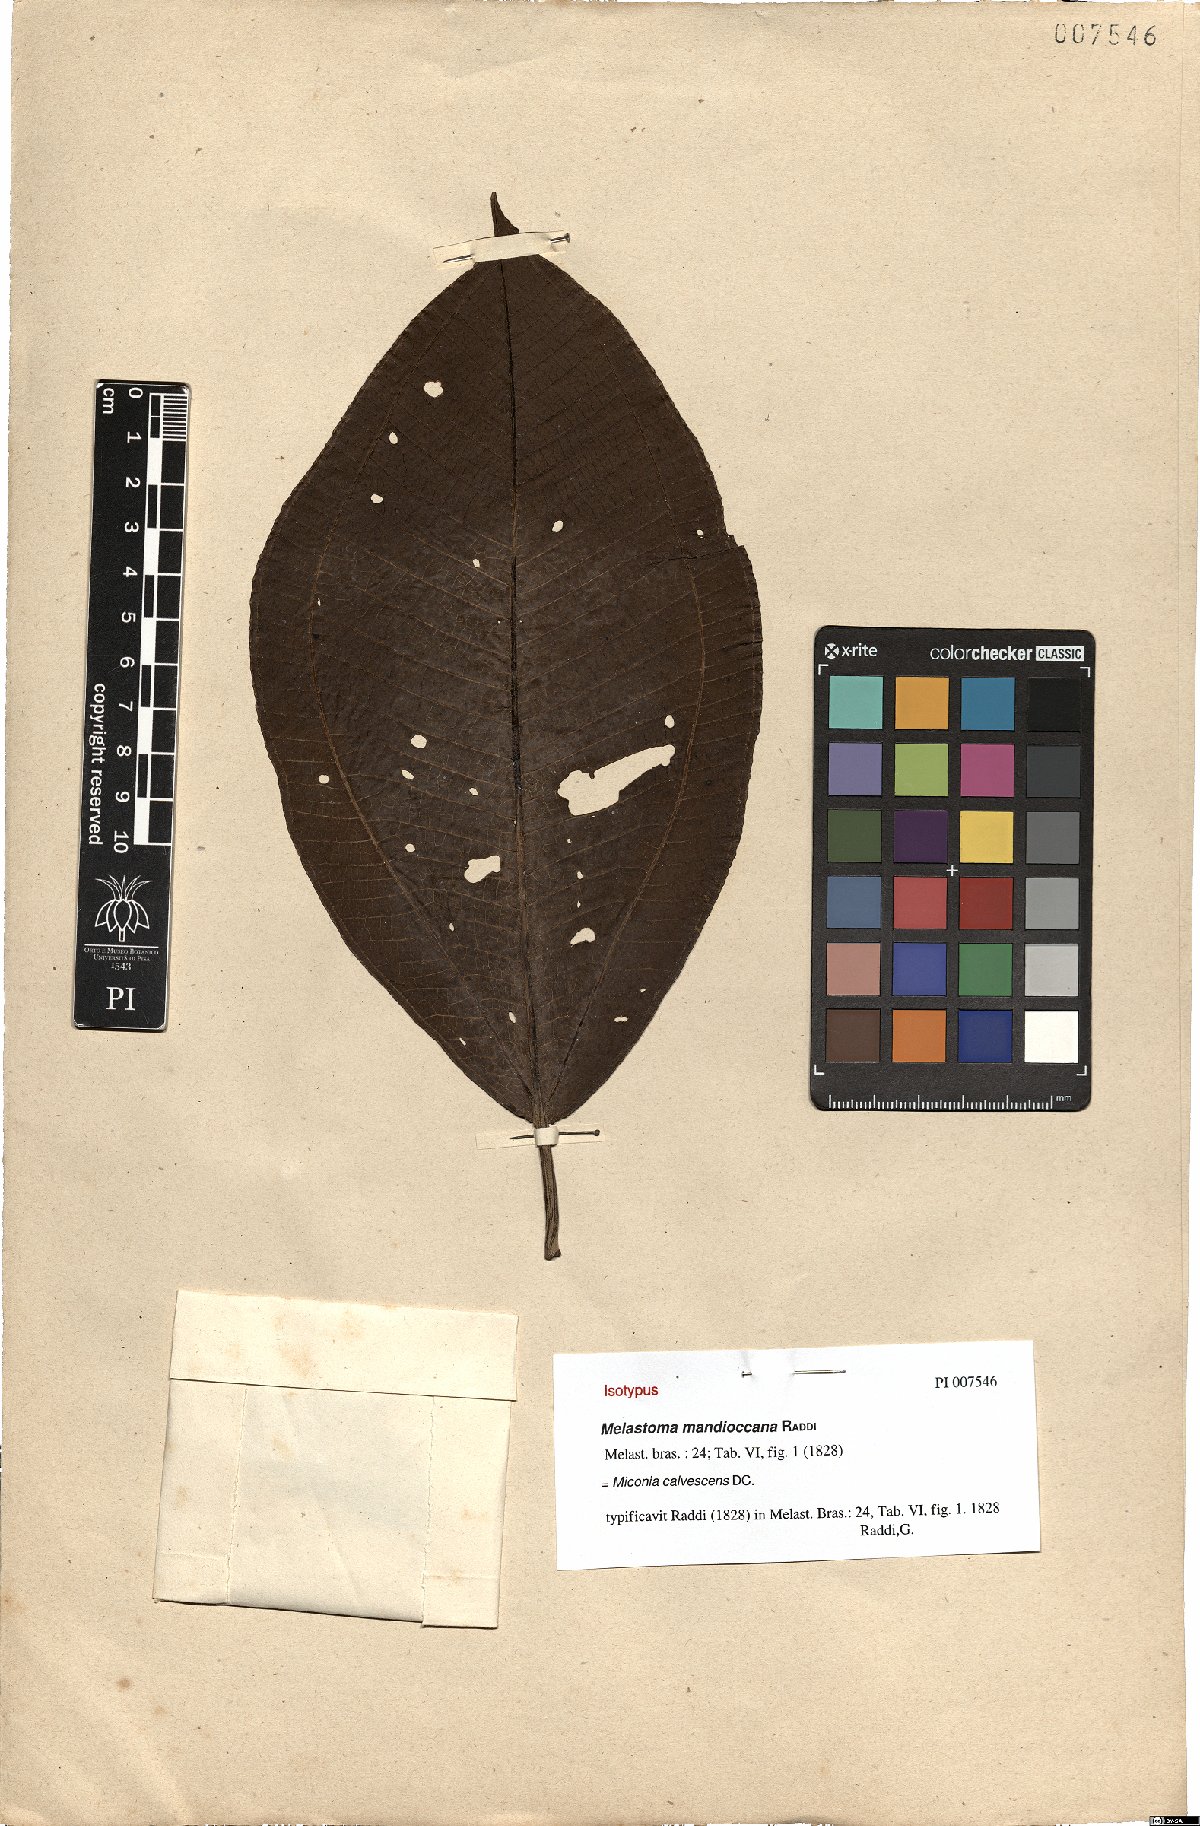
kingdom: Plantae
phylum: Tracheophyta
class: Magnoliopsida
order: Myrtales
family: Melastomataceae
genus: Miconia
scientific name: Miconia calvescens
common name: Purple plague
